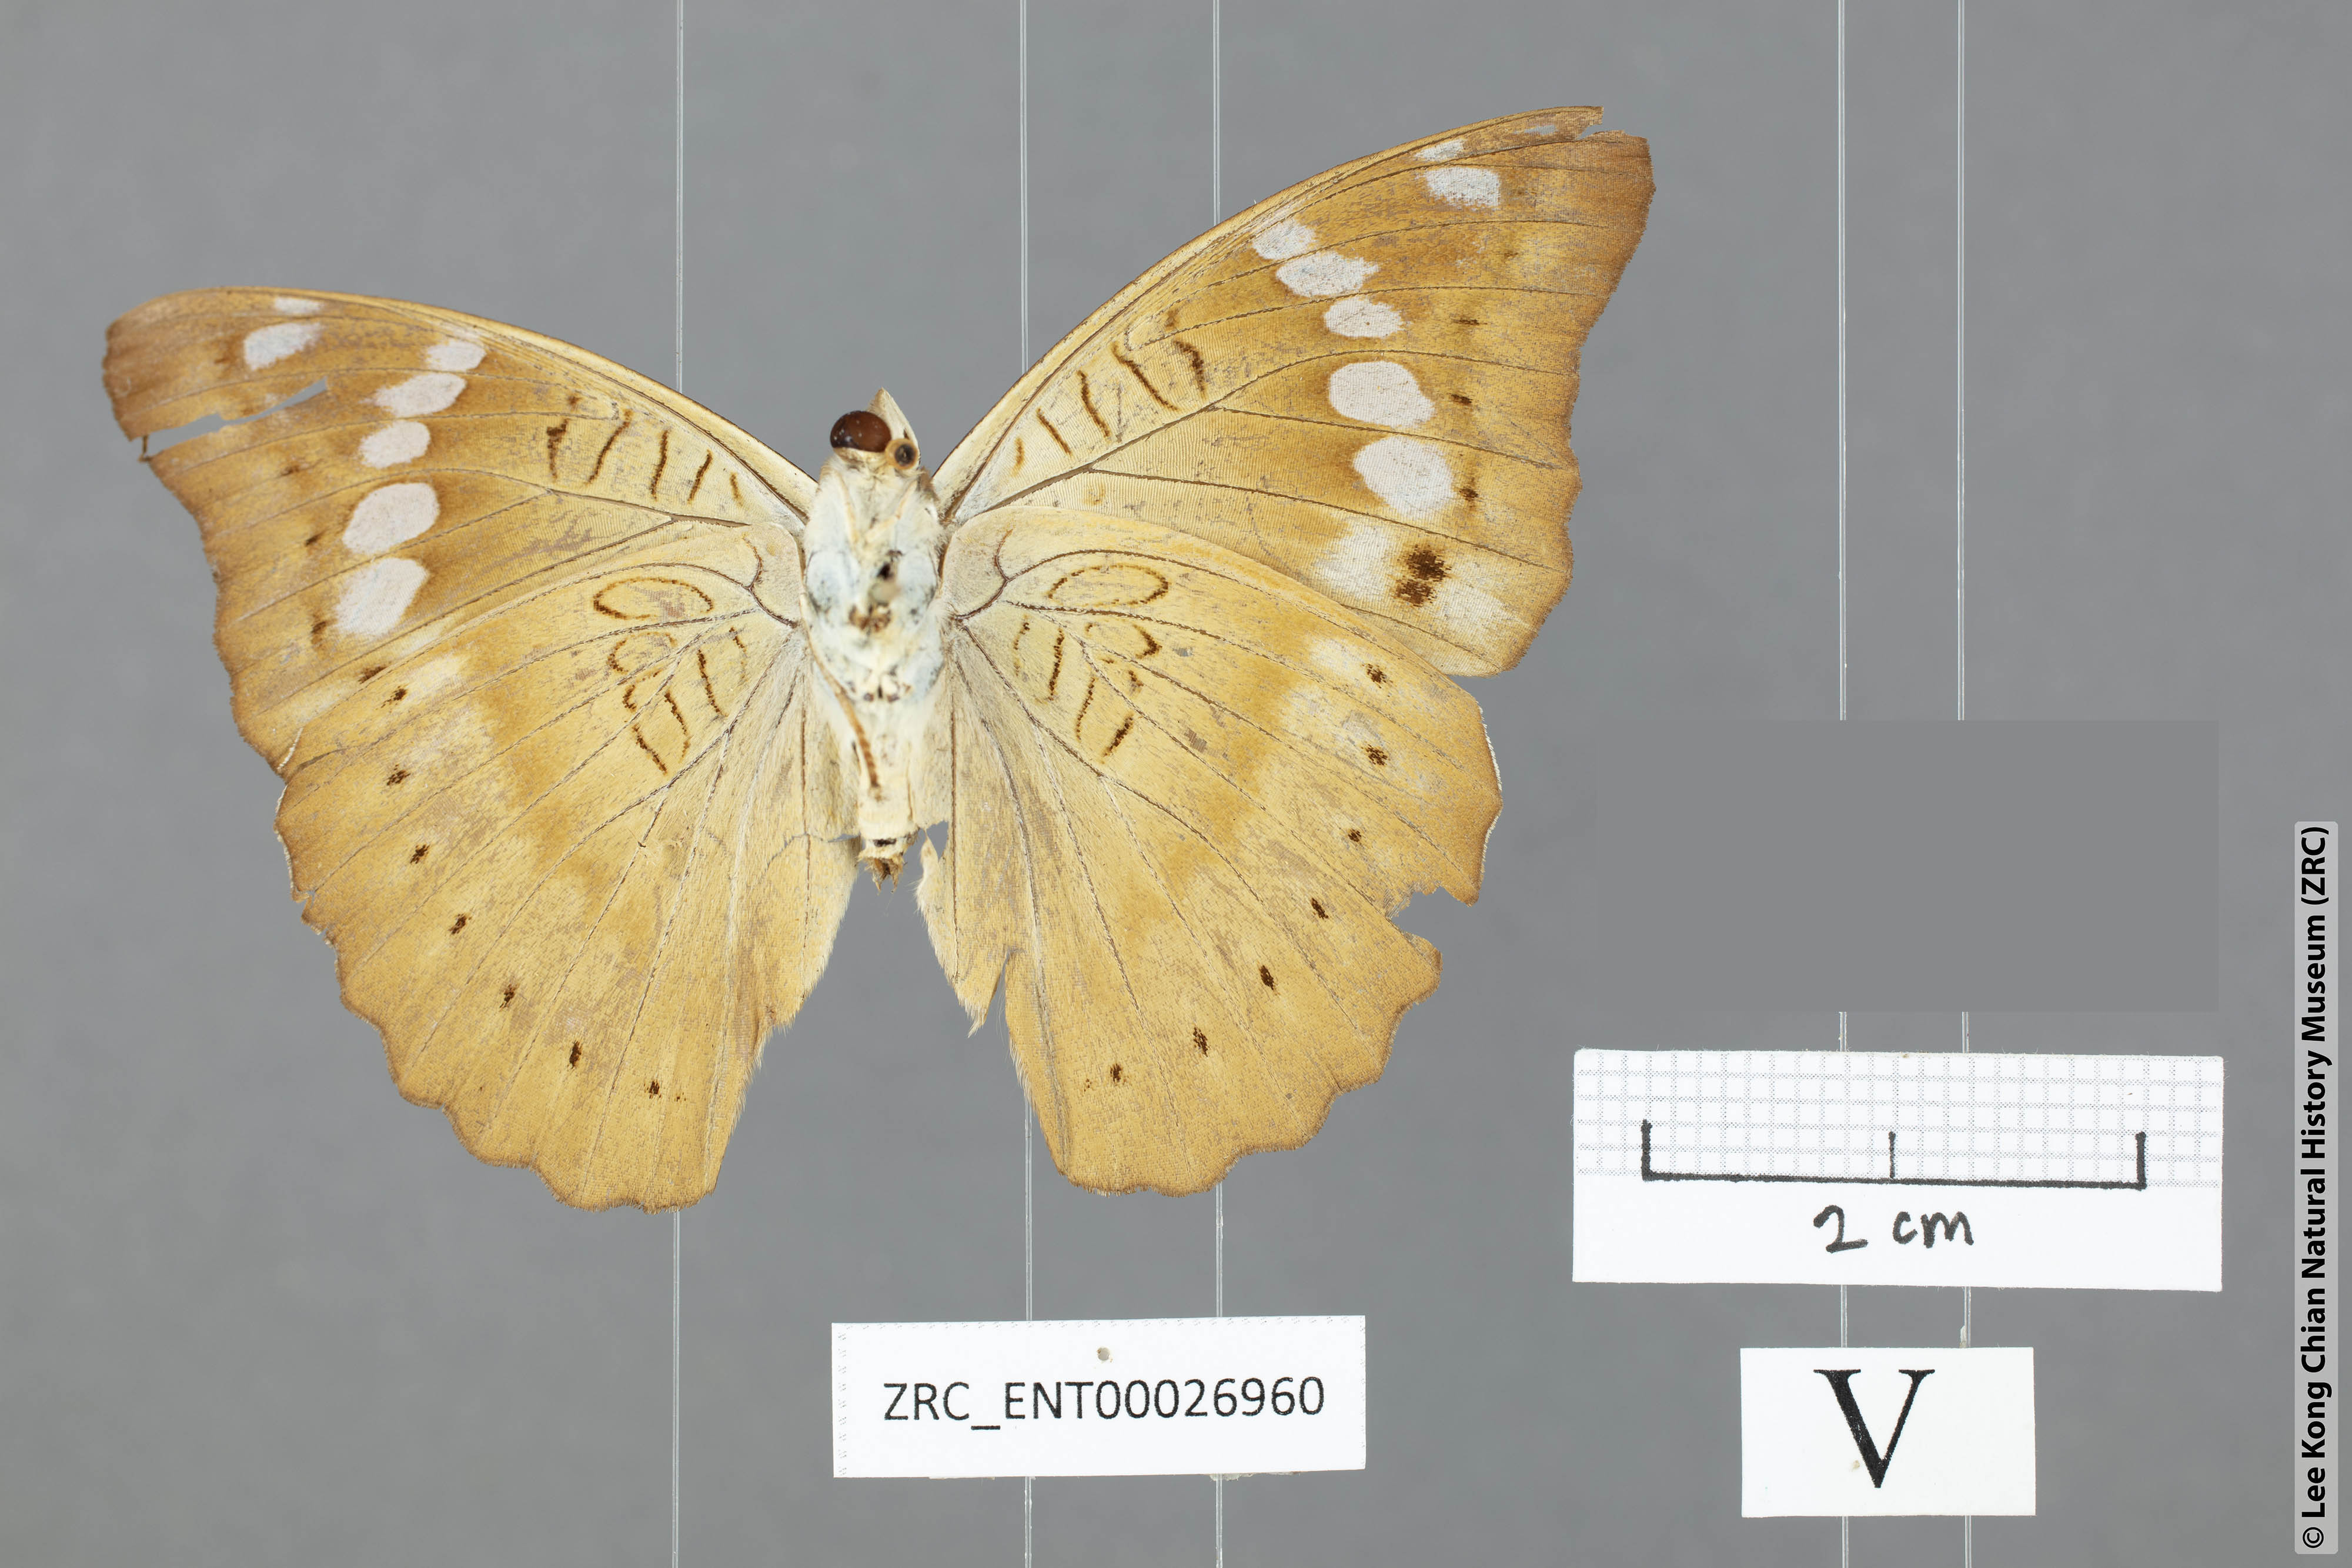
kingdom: Animalia
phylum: Arthropoda
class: Insecta
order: Lepidoptera
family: Nymphalidae
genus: Euthalia
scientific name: Euthalia agnis
